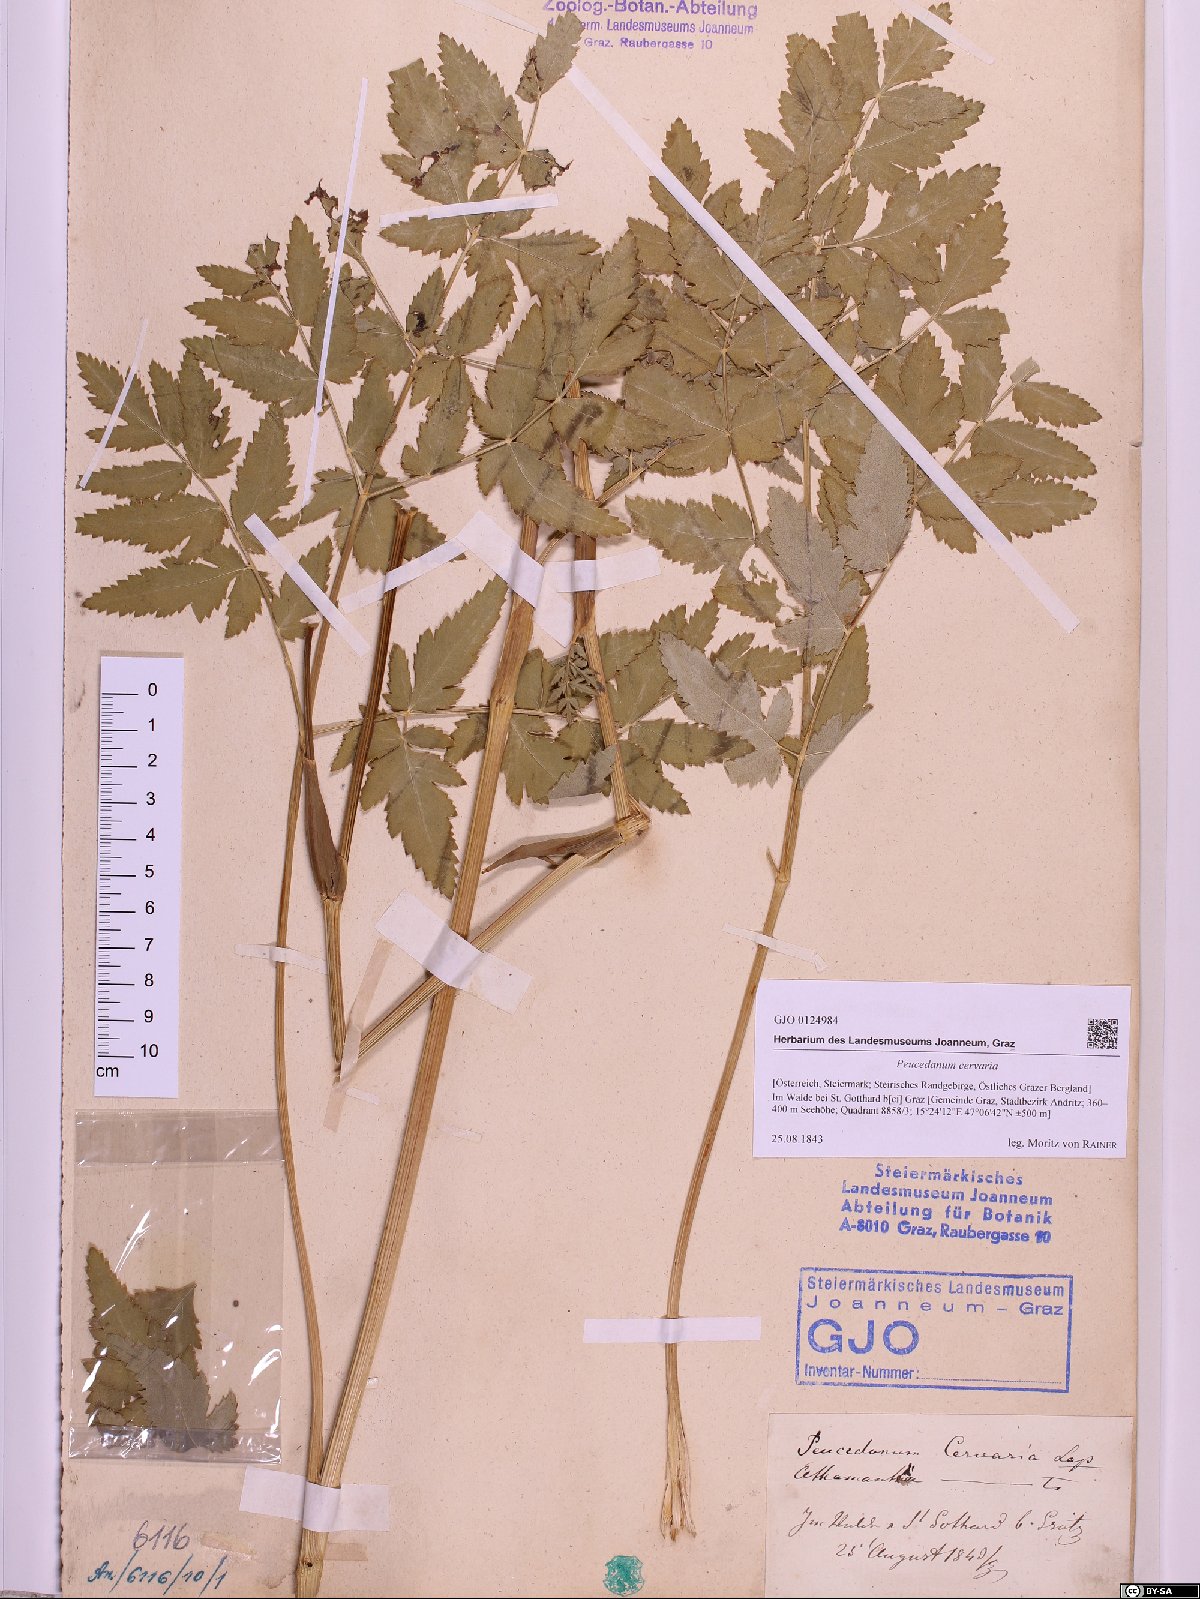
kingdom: Plantae
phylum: Tracheophyta
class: Magnoliopsida
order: Apiales
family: Apiaceae
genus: Cervaria
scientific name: Cervaria rivini
